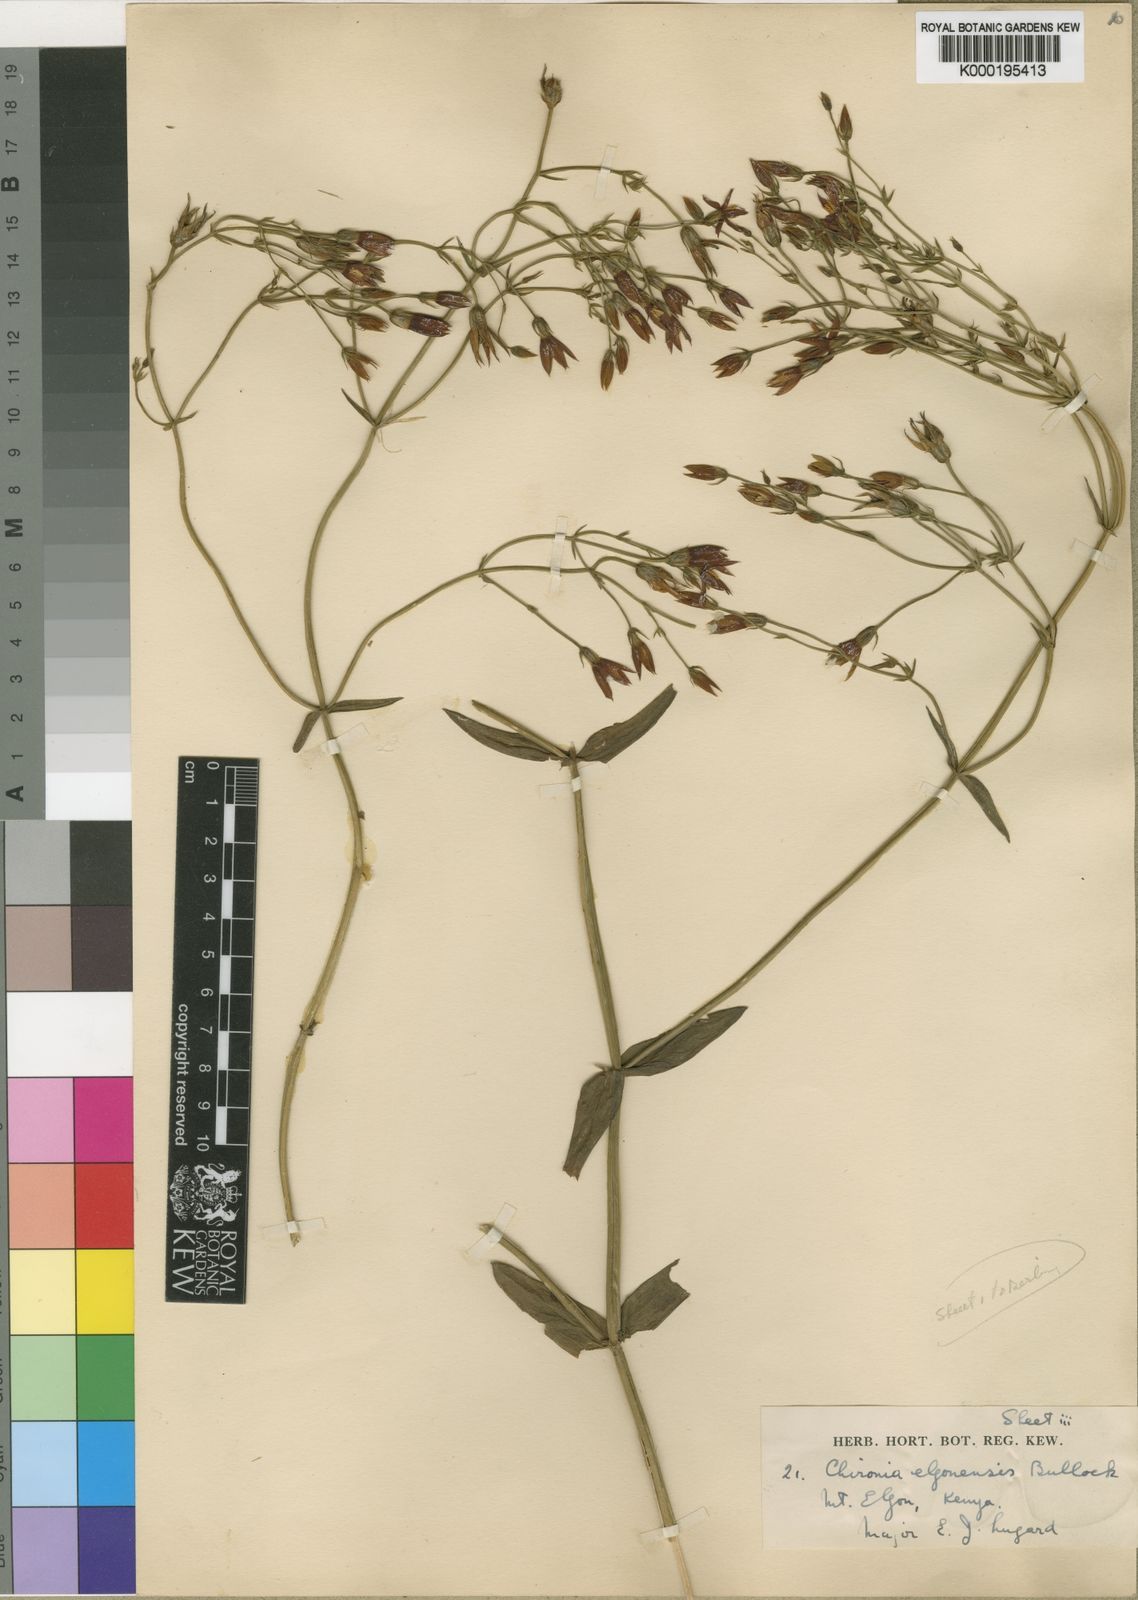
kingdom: Plantae
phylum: Tracheophyta
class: Magnoliopsida
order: Gentianales
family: Gentianaceae
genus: Chironia
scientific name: Chironia elgonensis
